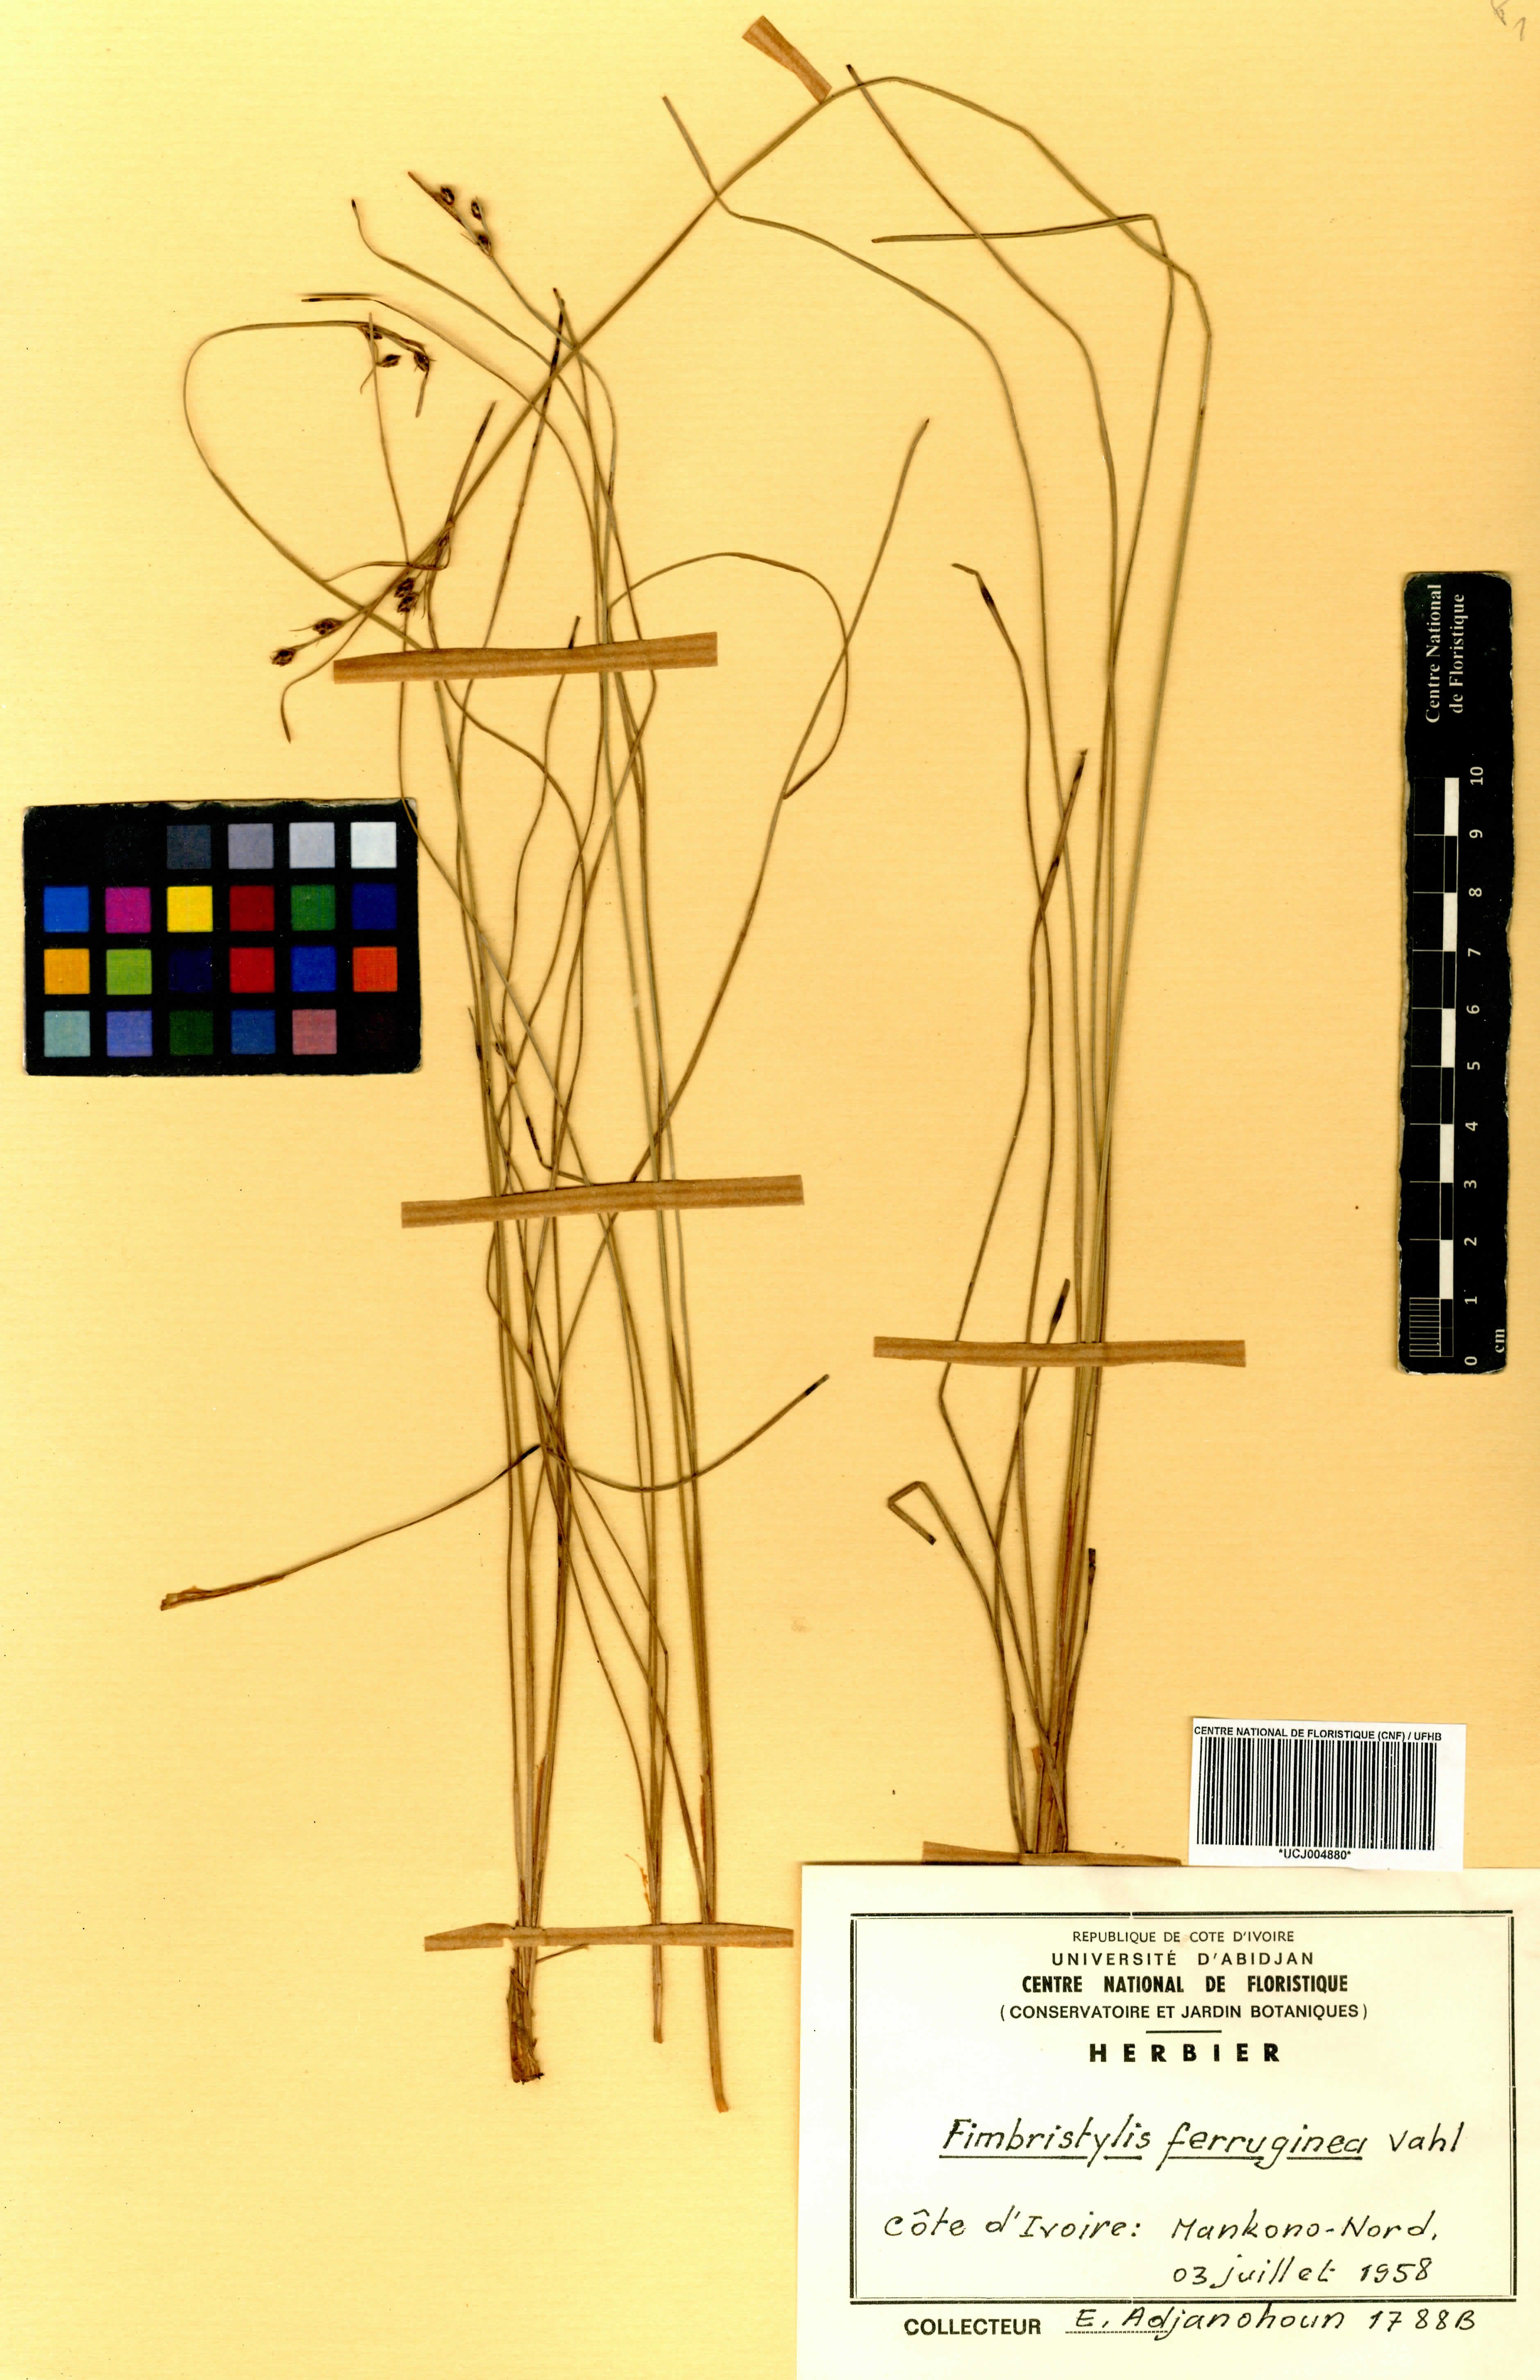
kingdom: Plantae
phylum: Tracheophyta
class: Liliopsida
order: Poales
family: Cyperaceae
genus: Fimbristylis
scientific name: Fimbristylis ferruginea
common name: West indian fimbry
